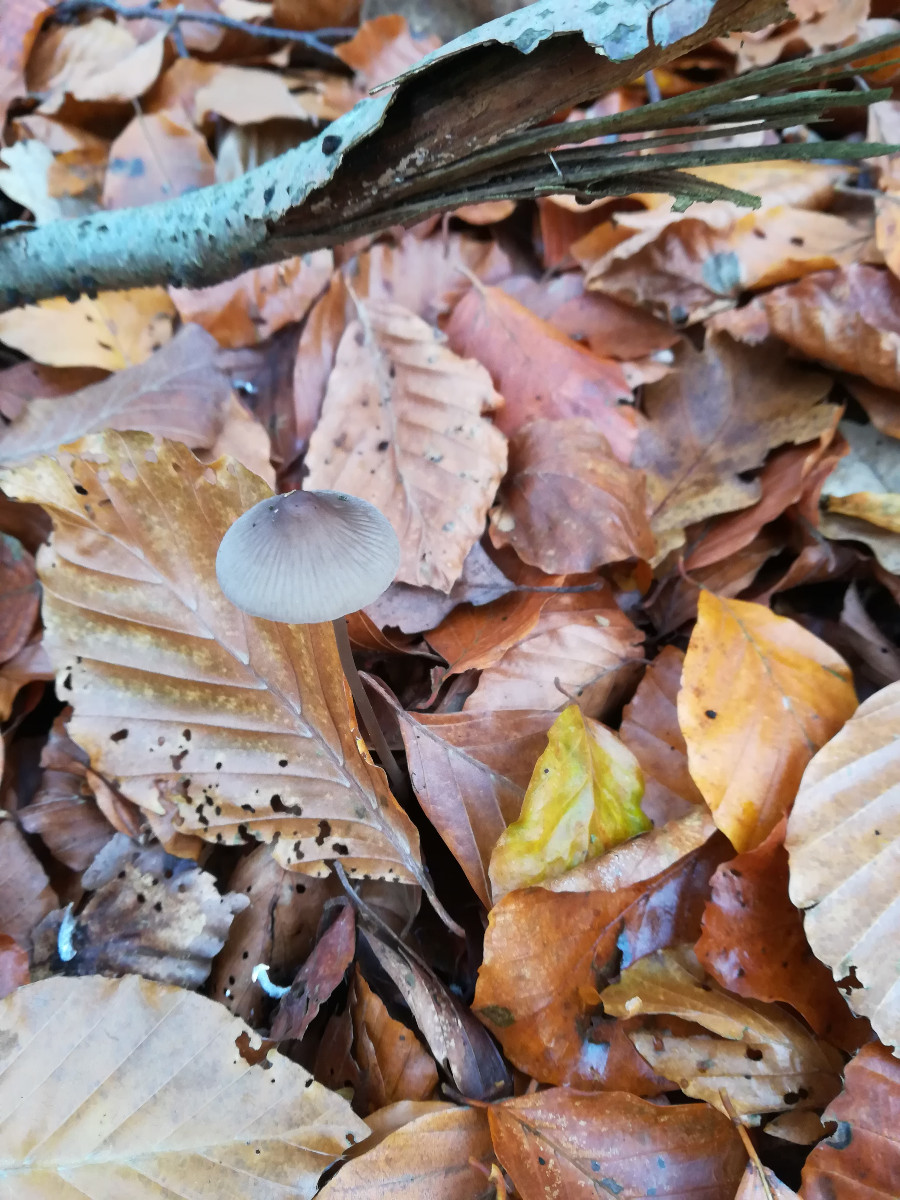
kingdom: Fungi
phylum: Basidiomycota
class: Agaricomycetes
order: Agaricales
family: Mycenaceae
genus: Mycena
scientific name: Mycena polygramma
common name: mangestribet huesvamp
